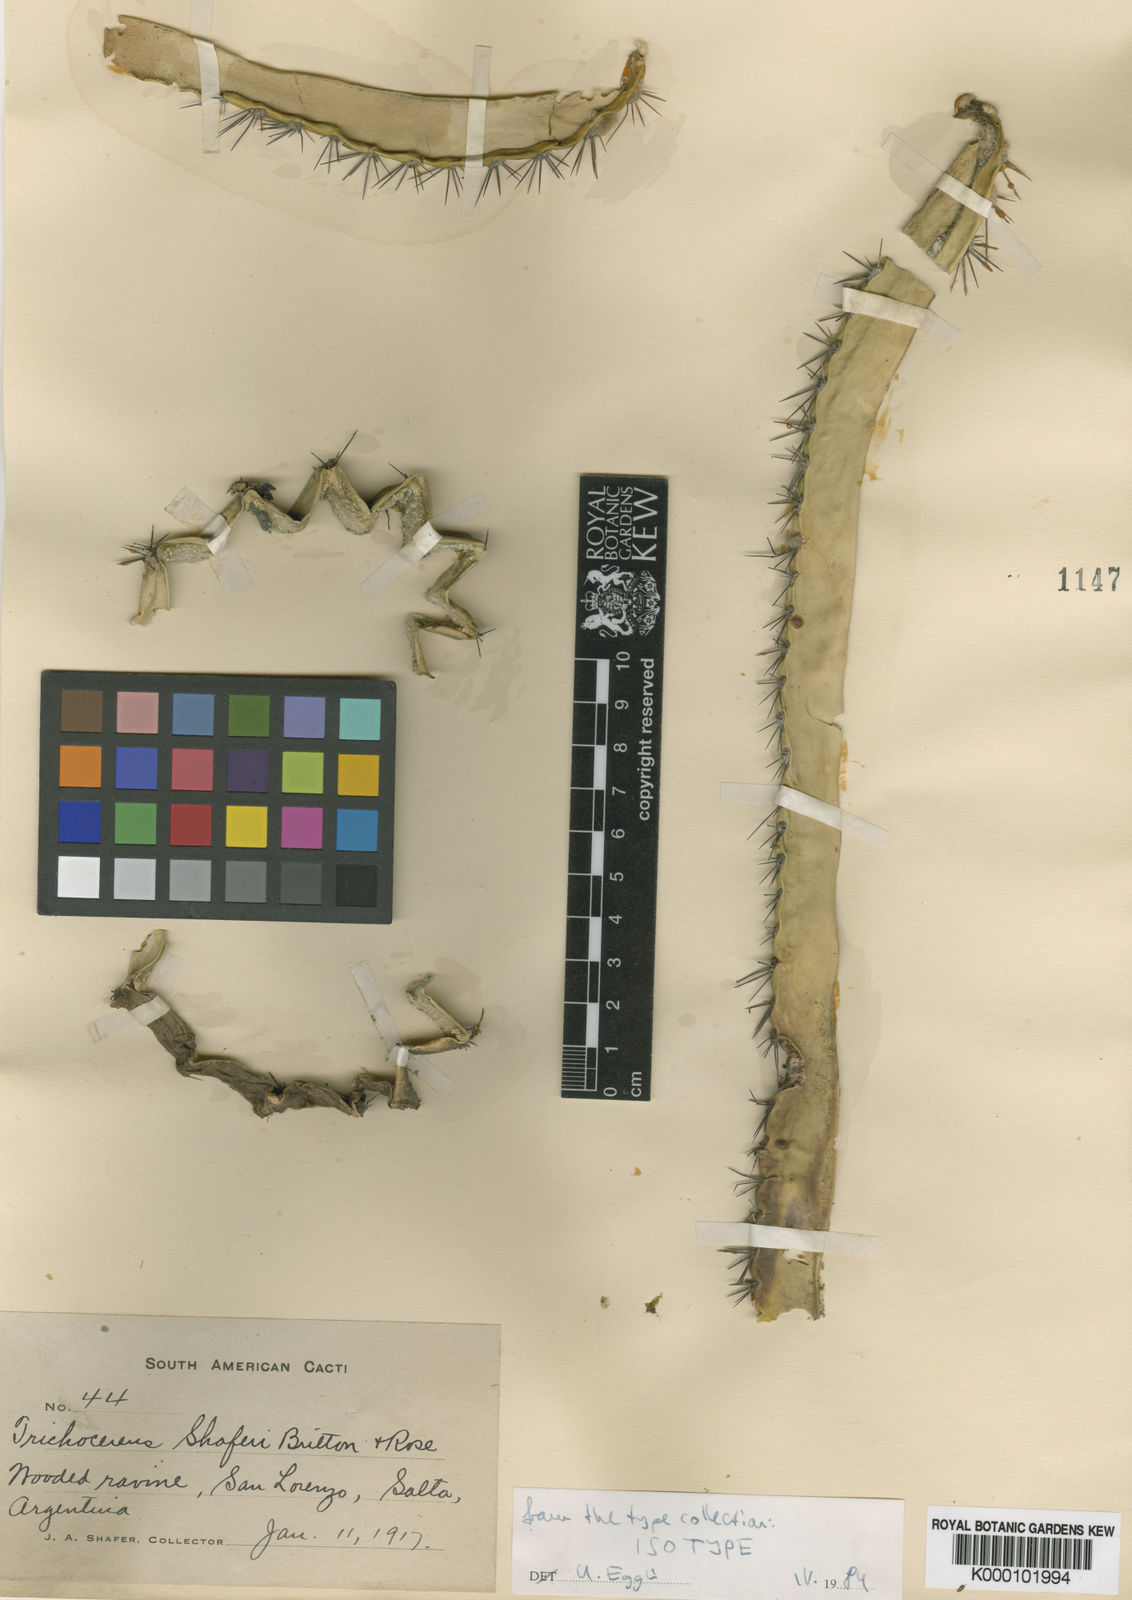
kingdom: Plantae
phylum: Tracheophyta
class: Magnoliopsida
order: Caryophyllales
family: Cactaceae
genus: Soehrensia
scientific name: Soehrensia schickendantzii
